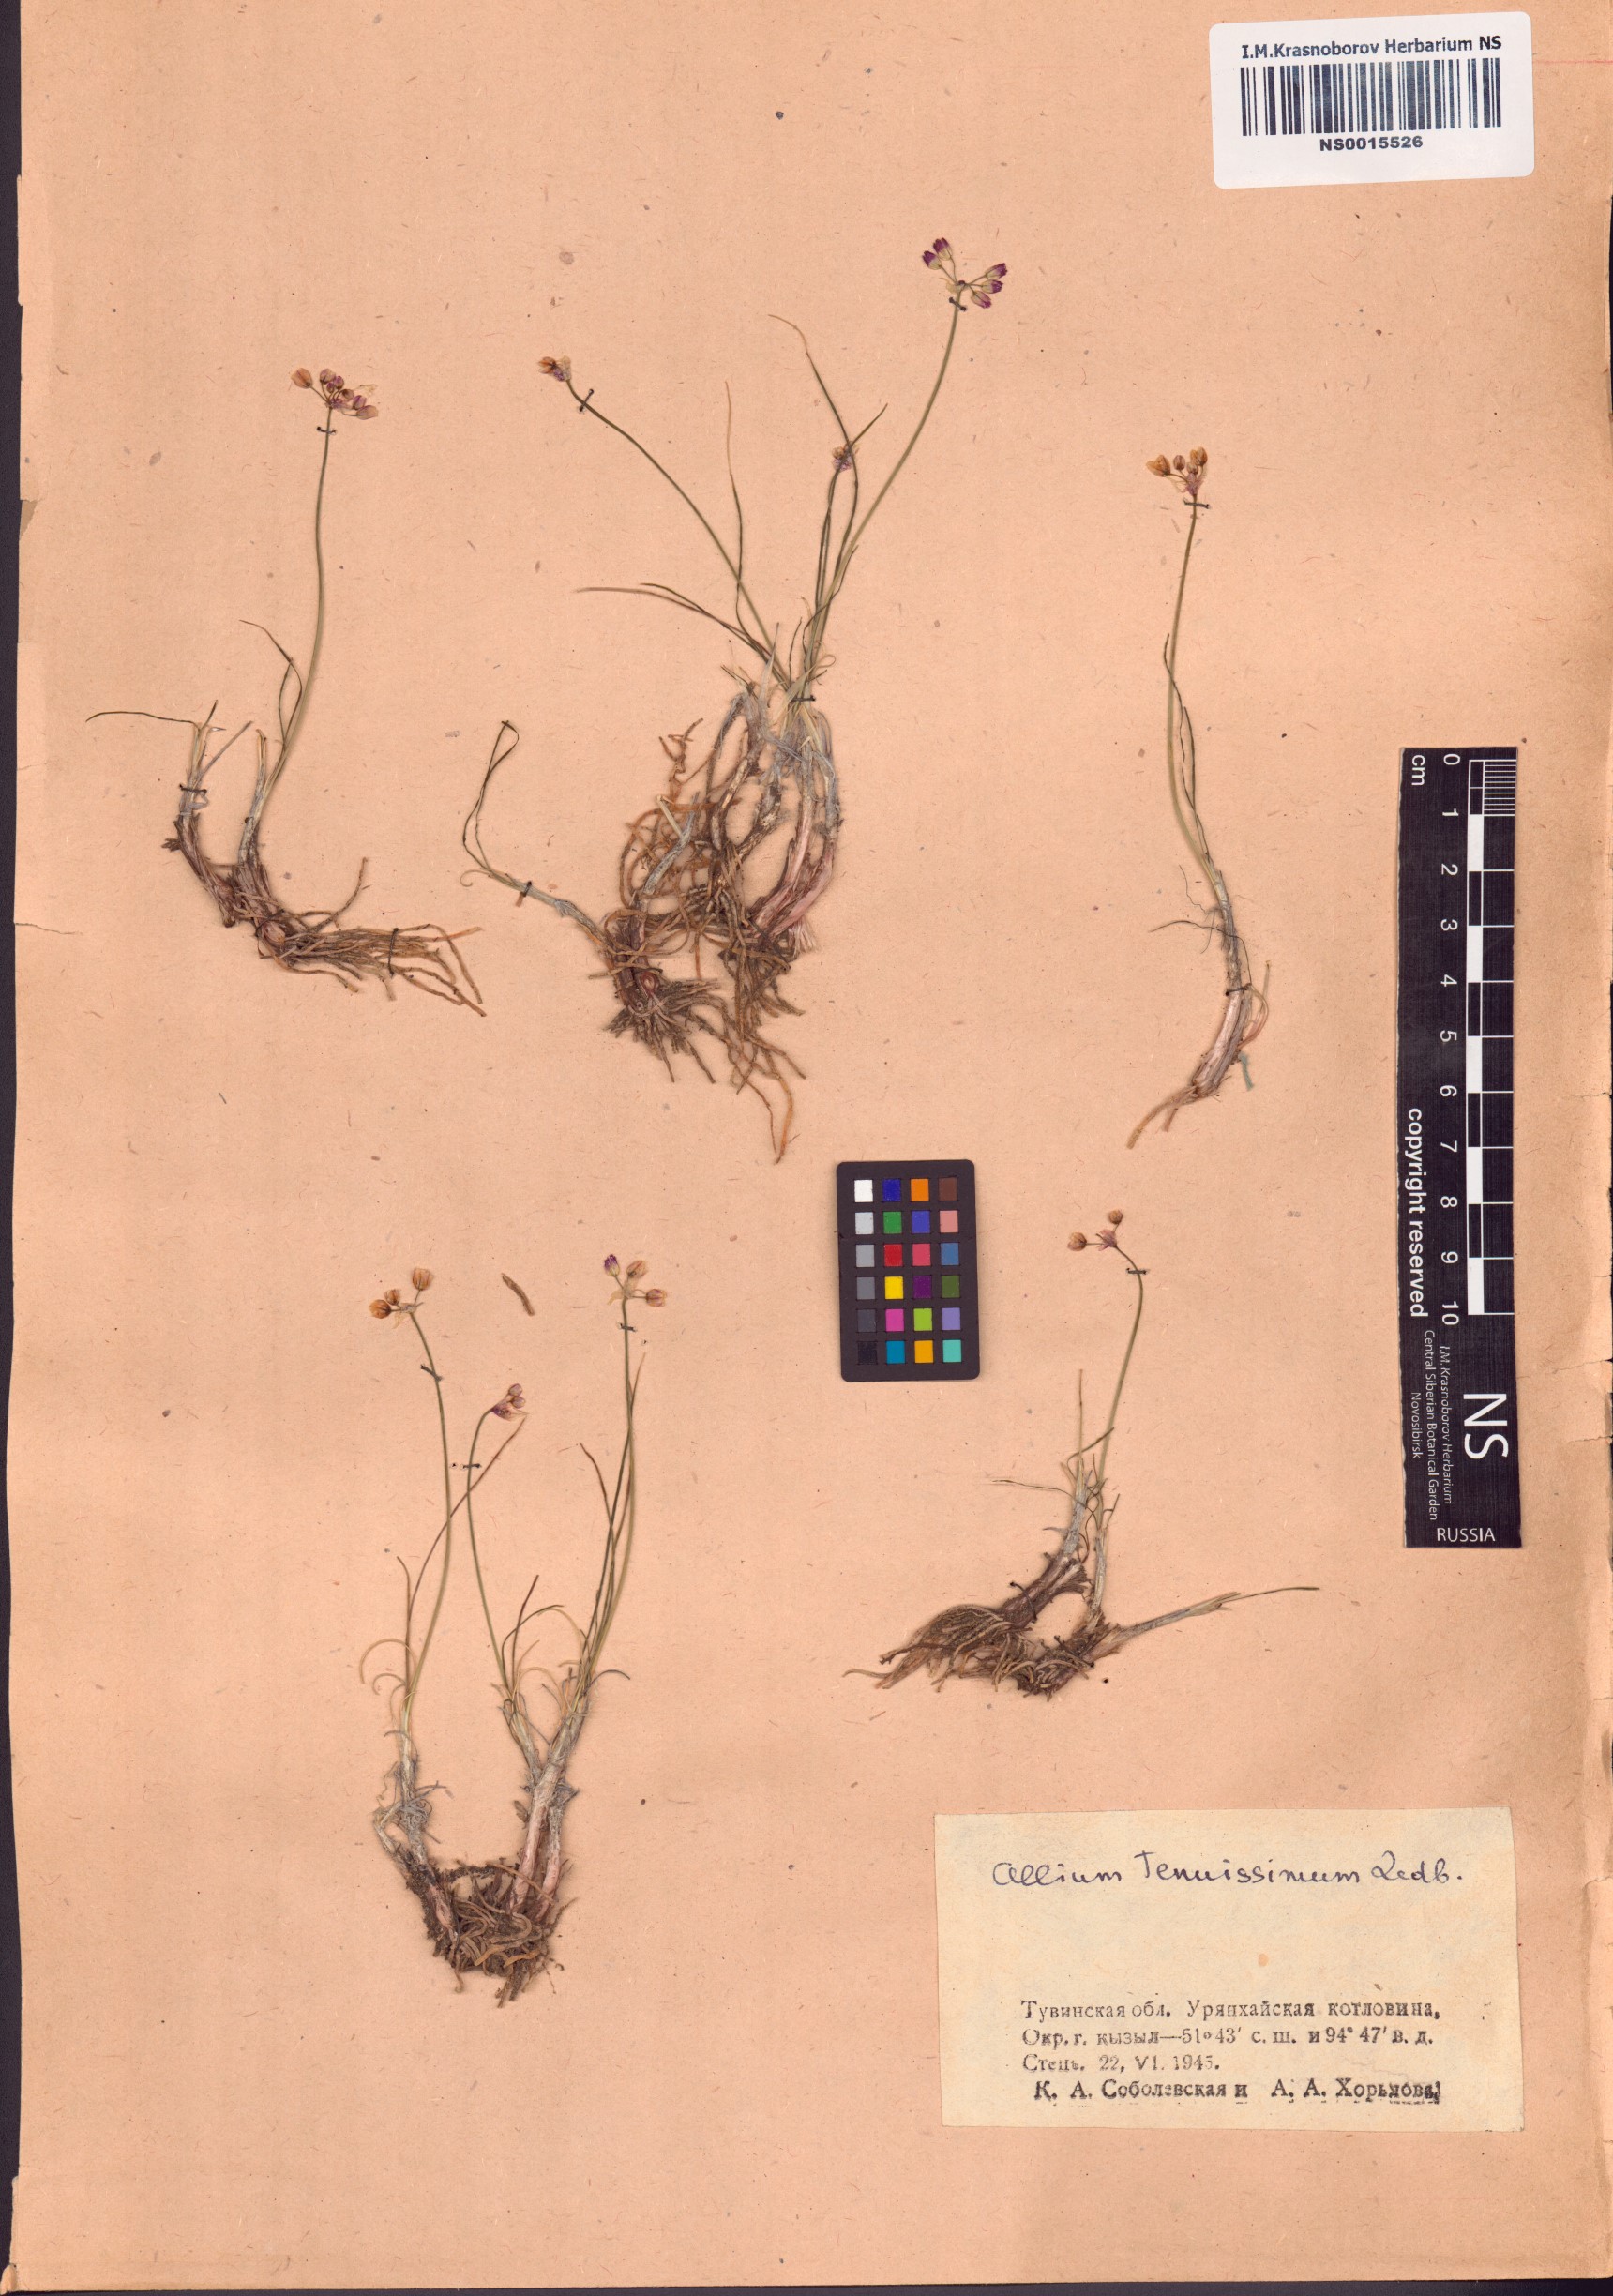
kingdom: Plantae
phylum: Tracheophyta
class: Liliopsida
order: Asparagales
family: Amaryllidaceae
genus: Allium
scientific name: Allium tenuissimum
